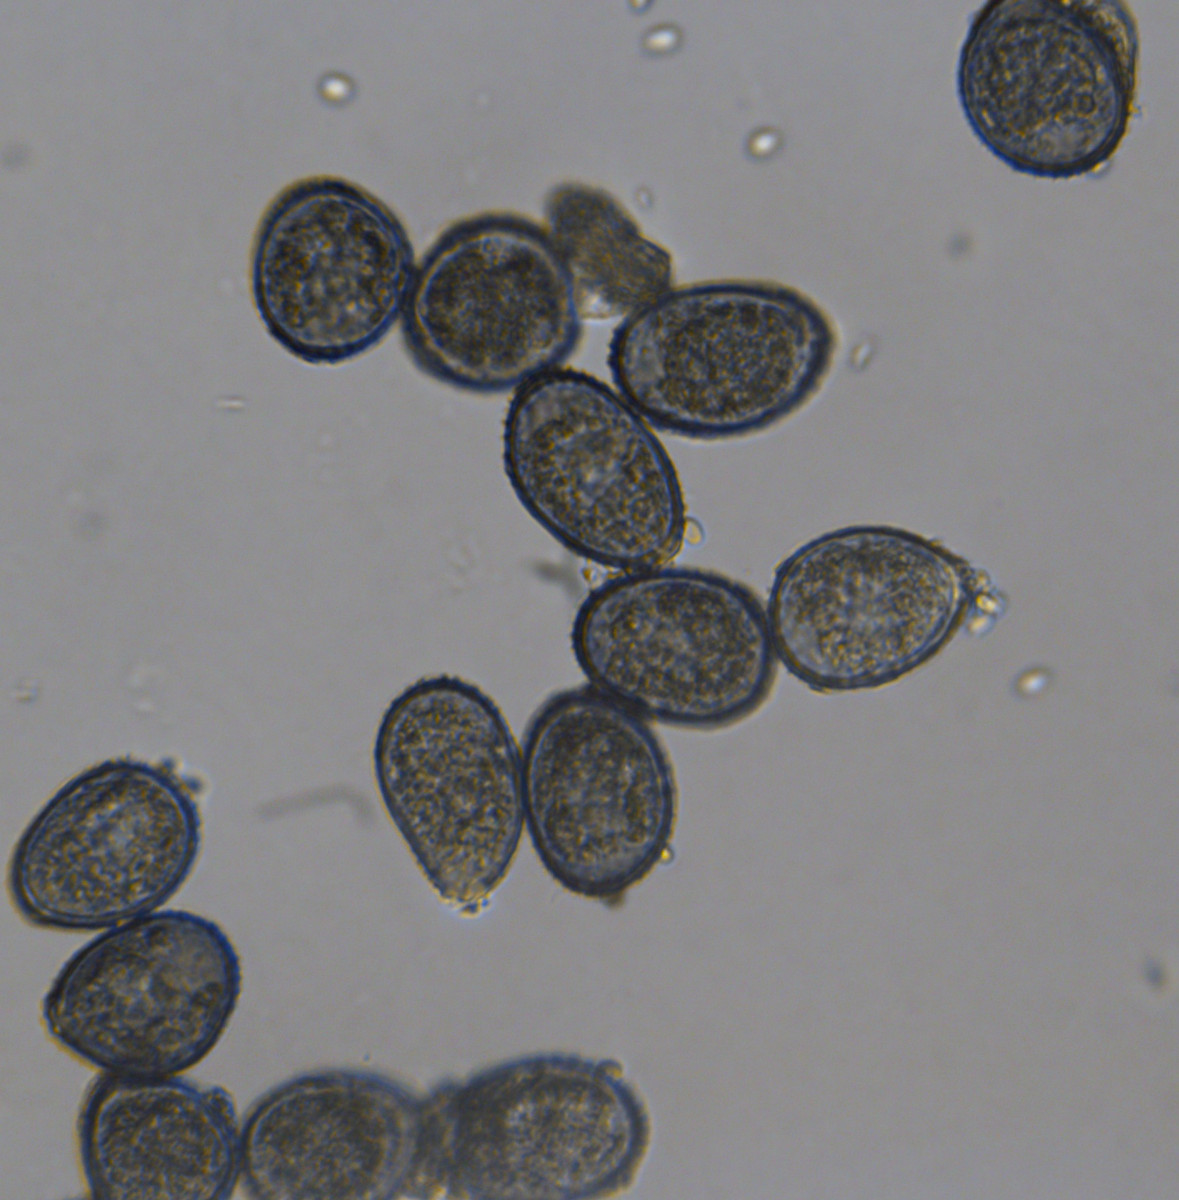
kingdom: Fungi
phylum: Basidiomycota
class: Pucciniomycetes
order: Pucciniales
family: Pucciniaceae
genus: Puccinia
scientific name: Puccinia vincae
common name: Periwinkle rust
